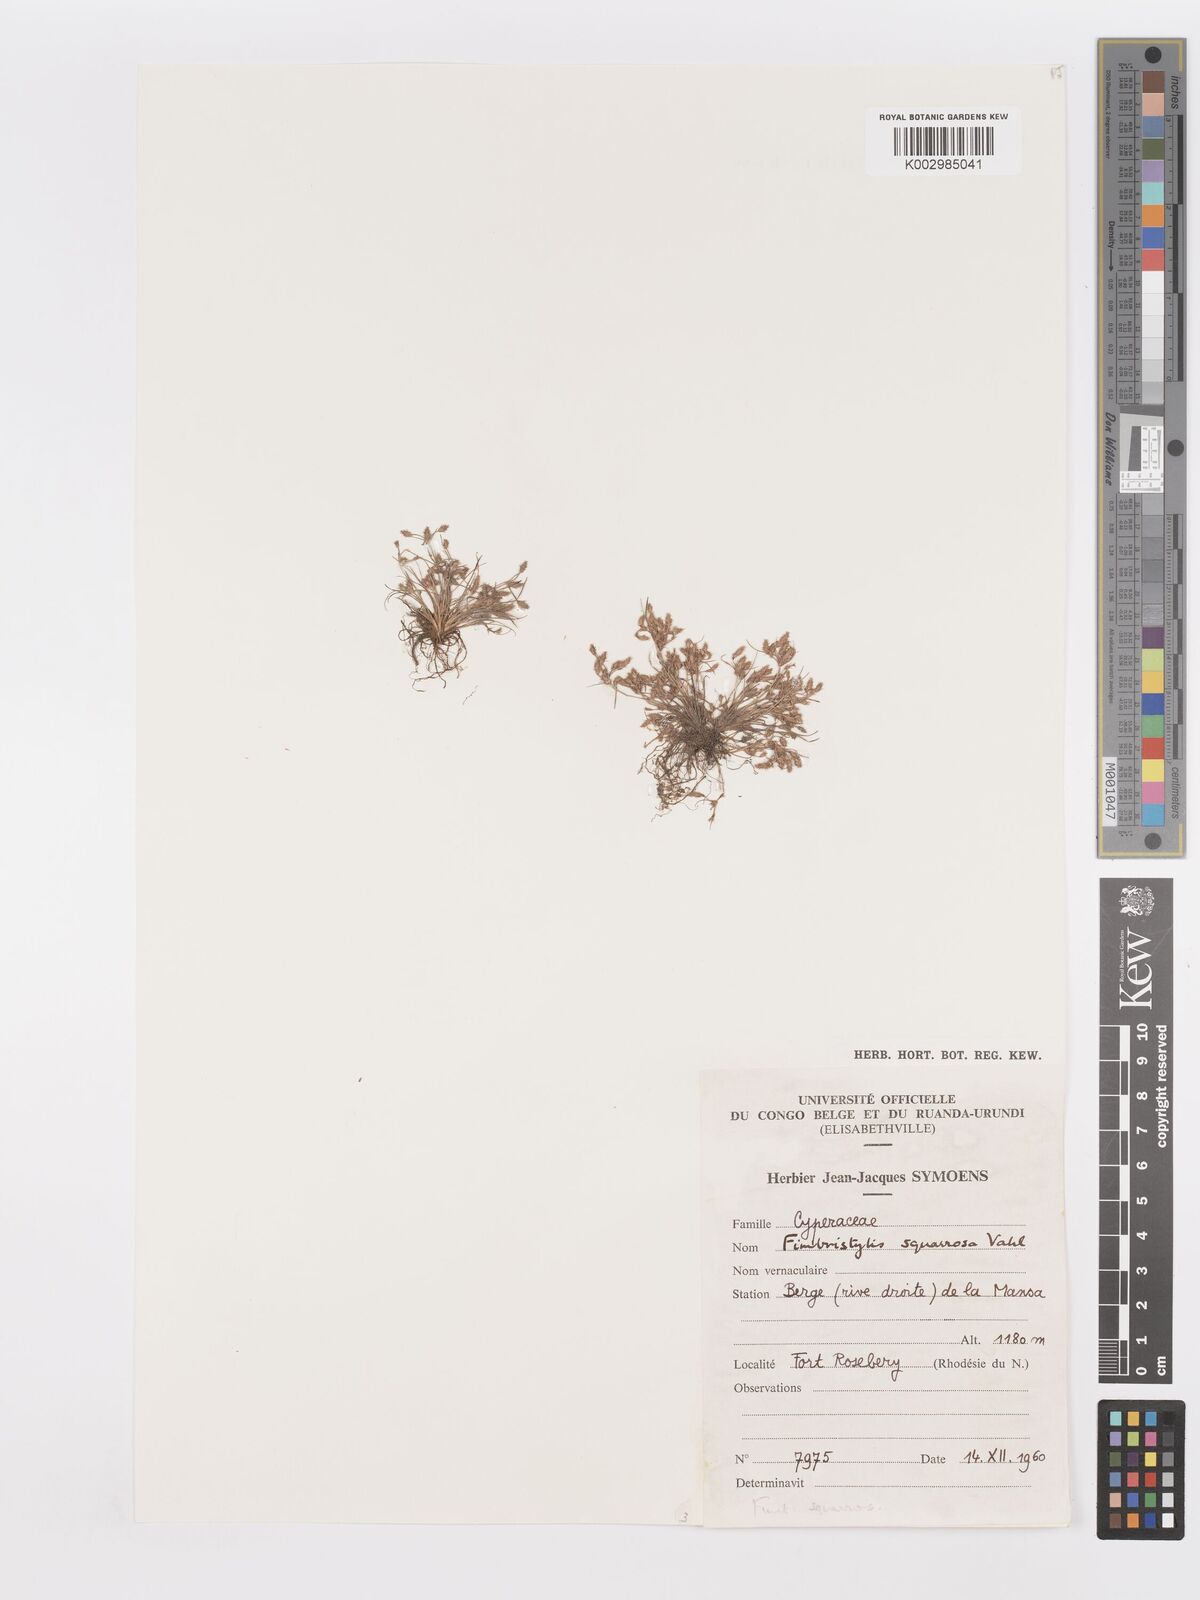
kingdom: Plantae
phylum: Tracheophyta
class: Liliopsida
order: Poales
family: Cyperaceae
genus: Fimbristylis
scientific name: Fimbristylis squarrosa
